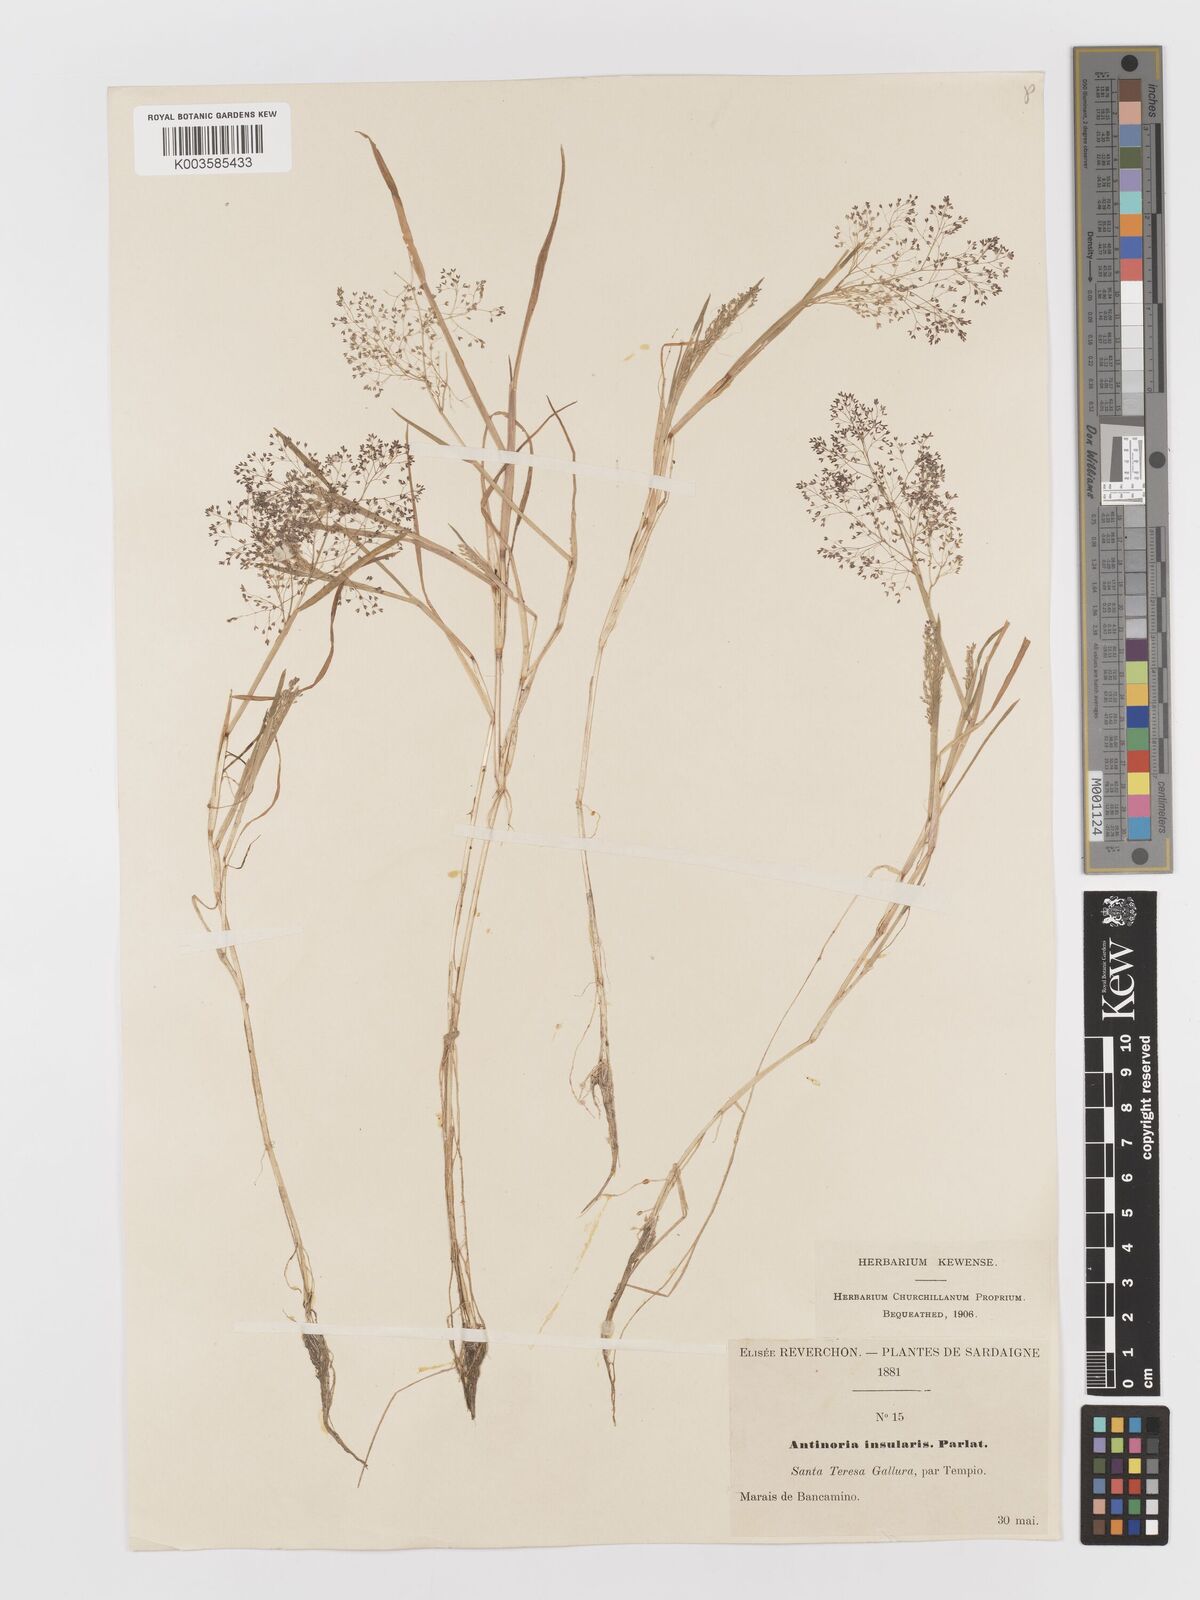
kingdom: Plantae
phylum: Tracheophyta
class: Liliopsida
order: Poales
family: Poaceae
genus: Antinoria
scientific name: Antinoria insularis
